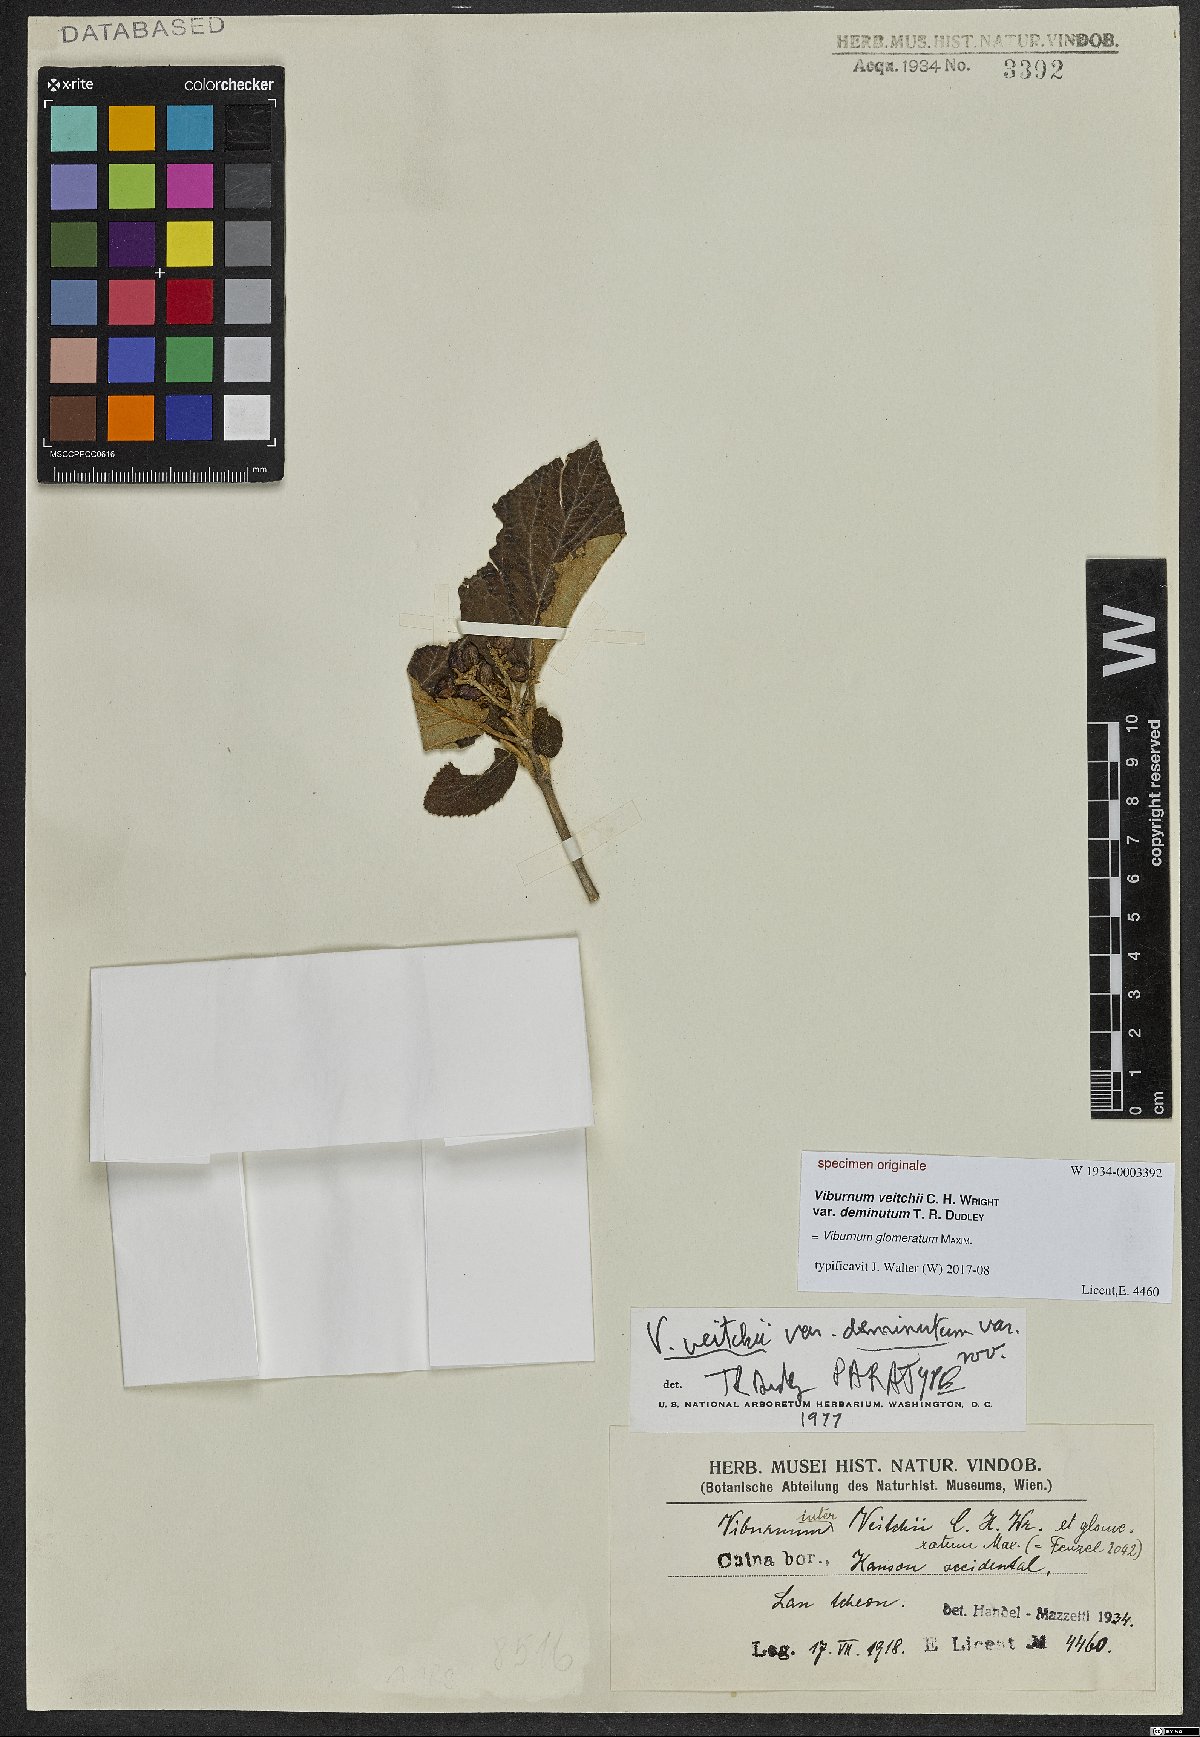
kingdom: Plantae
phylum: Tracheophyta
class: Magnoliopsida
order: Dipsacales
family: Viburnaceae
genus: Viburnum
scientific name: Viburnum glomeratum
